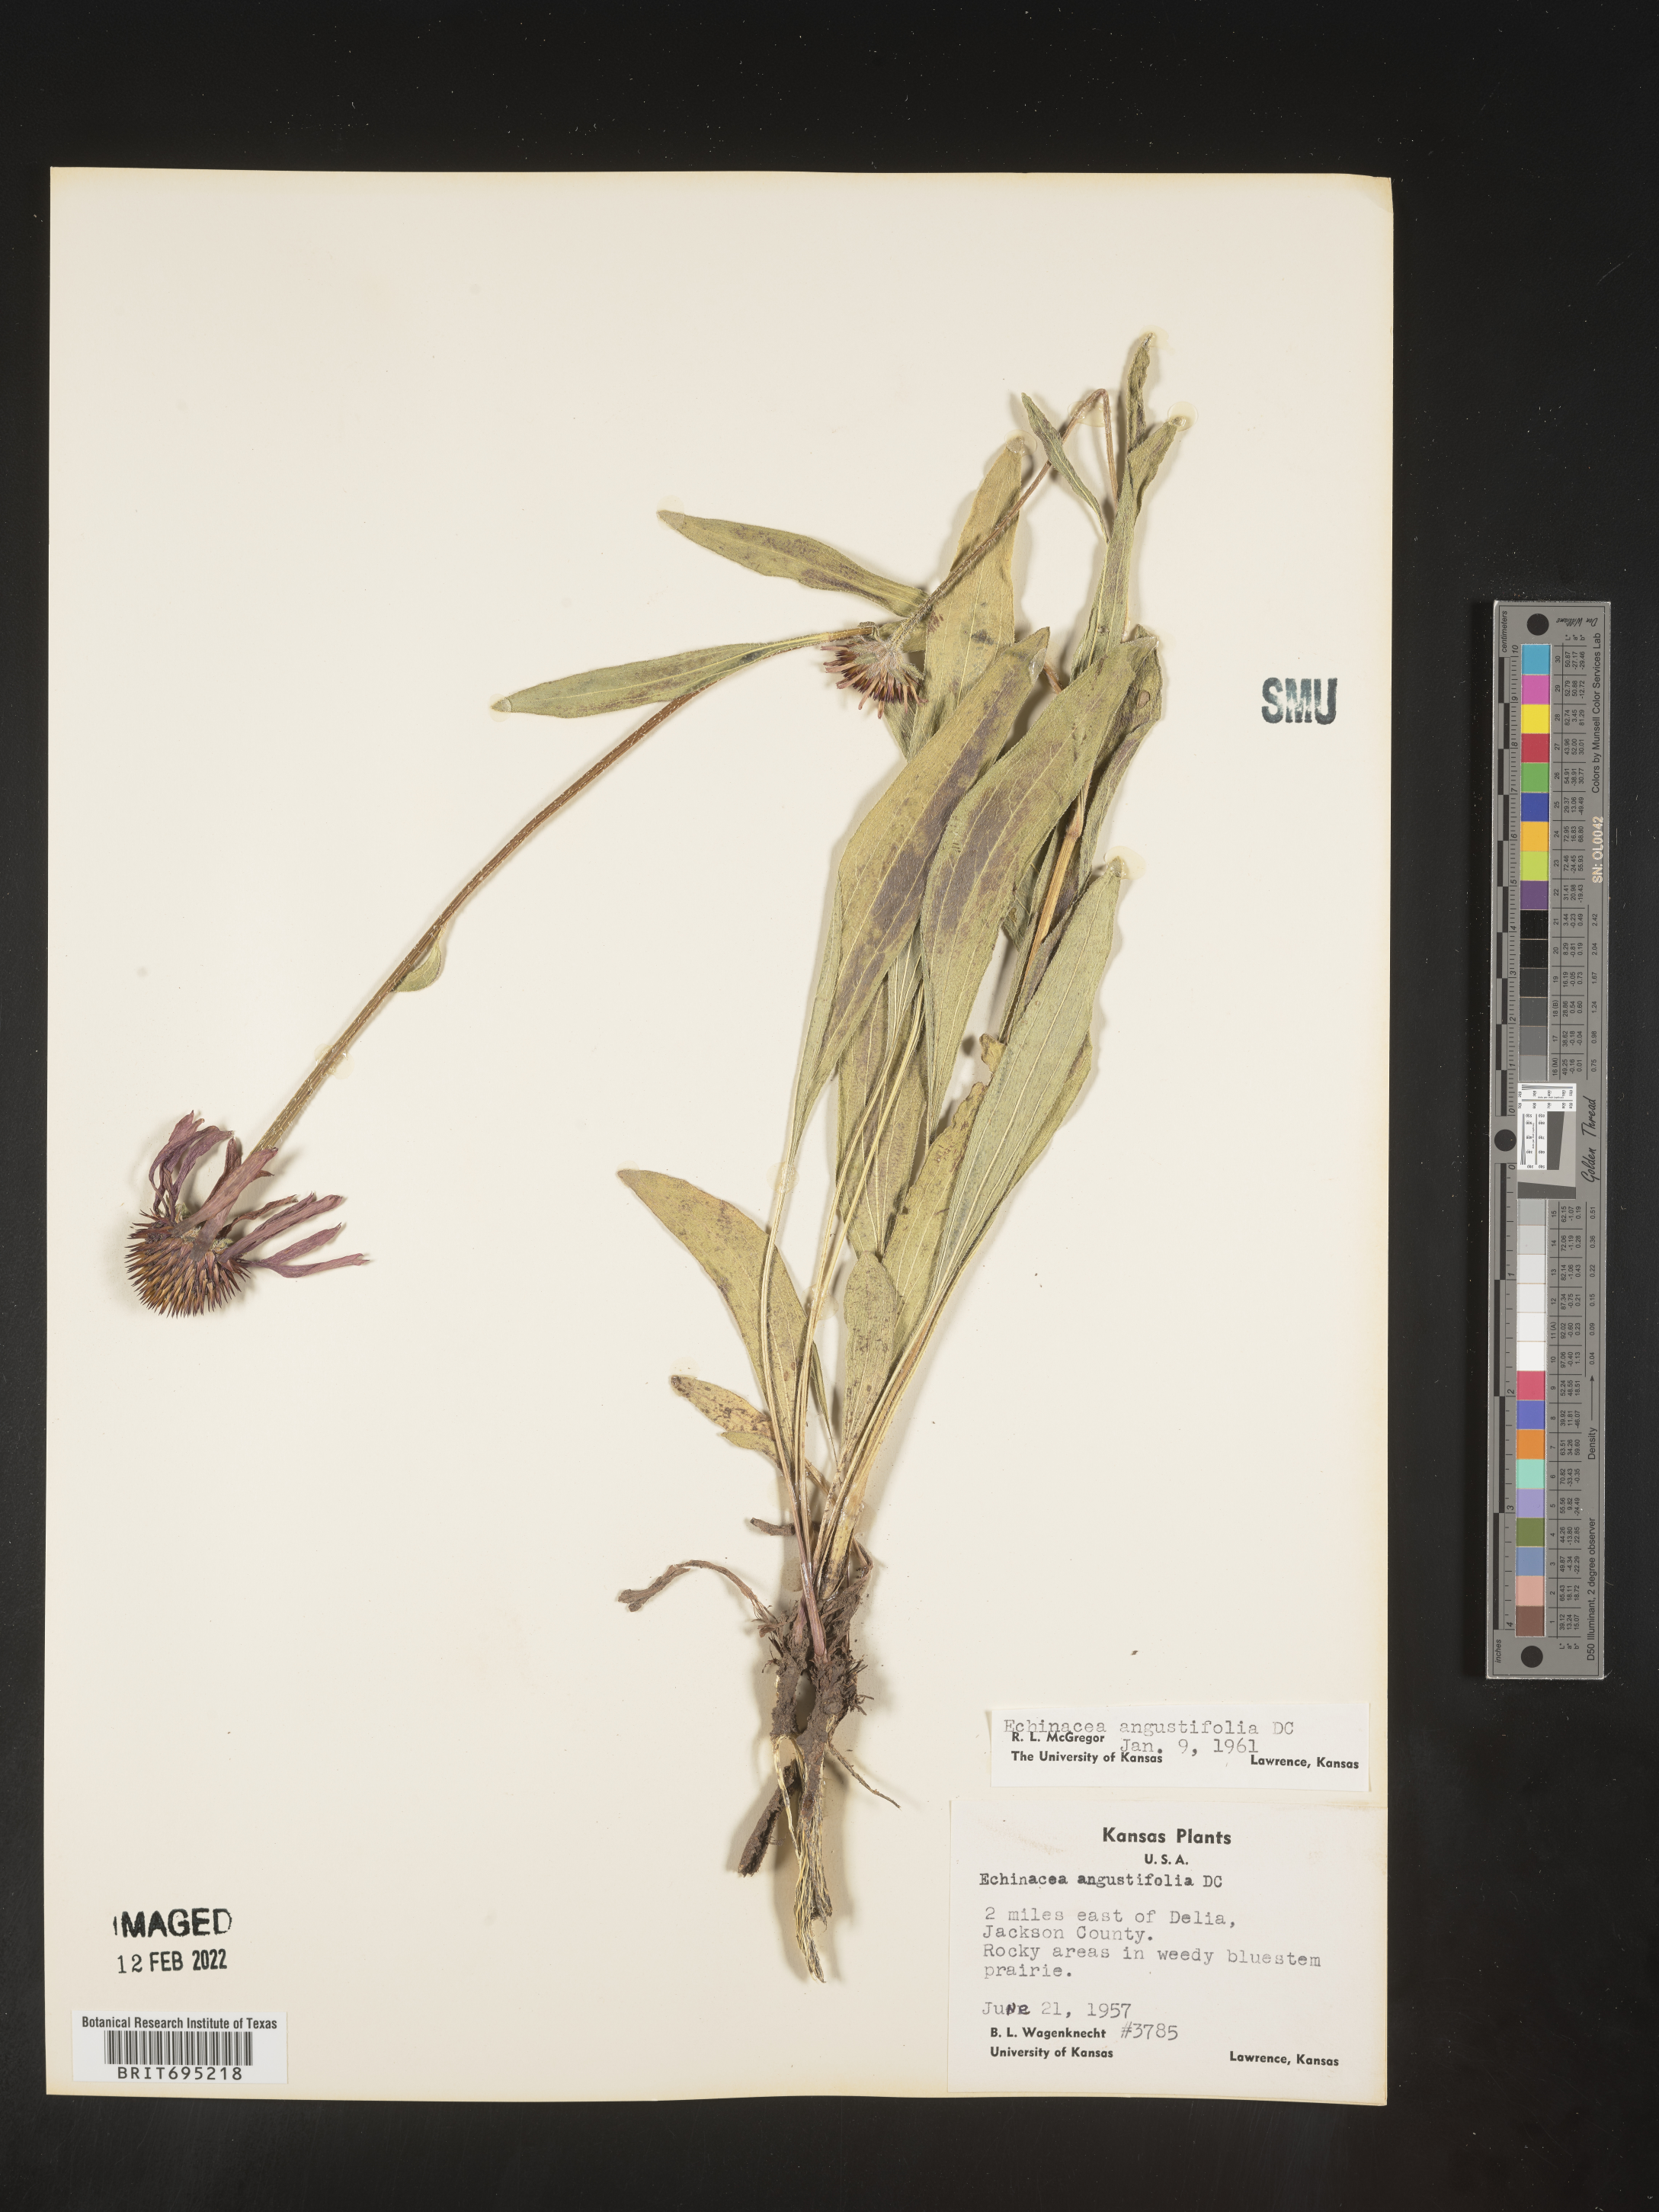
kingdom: Plantae
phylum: Tracheophyta
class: Magnoliopsida
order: Asterales
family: Asteraceae
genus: Echinacea
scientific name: Echinacea angustifolia
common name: Black-sampson echinacea
